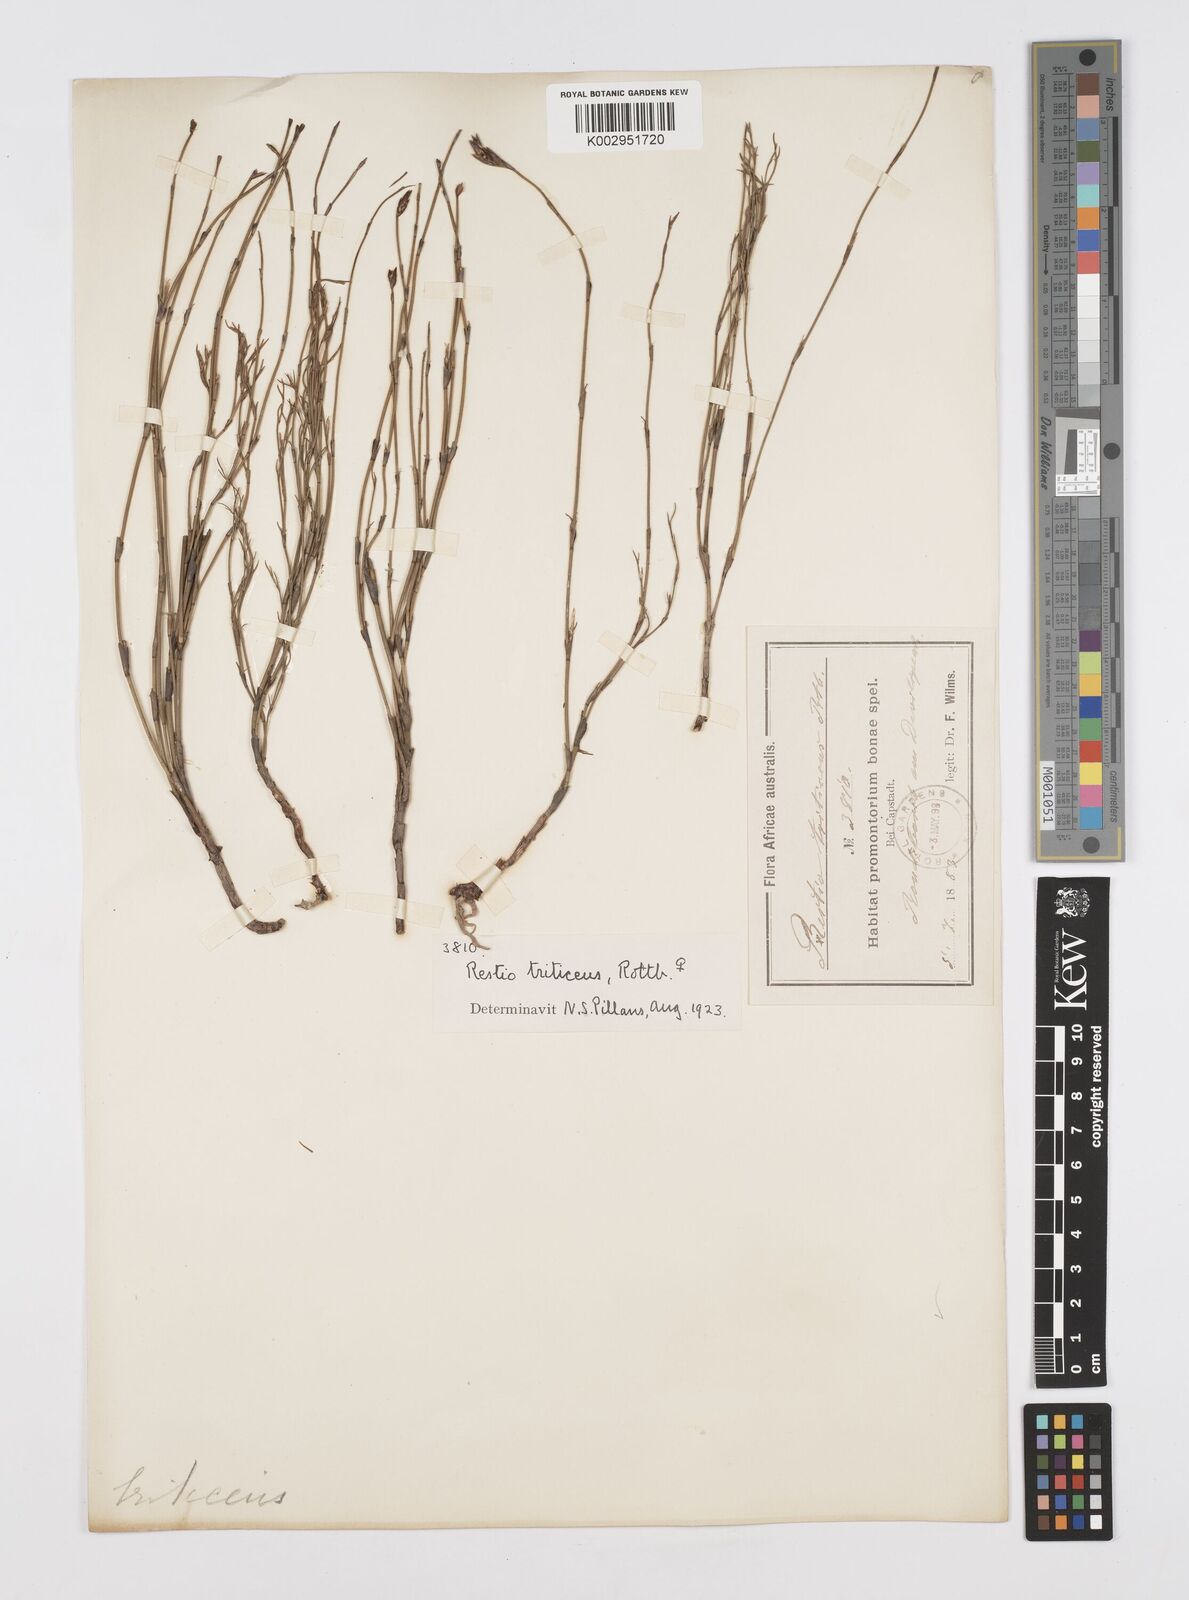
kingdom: Plantae
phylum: Tracheophyta
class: Liliopsida
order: Poales
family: Restionaceae
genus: Restio
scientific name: Restio triticeus
